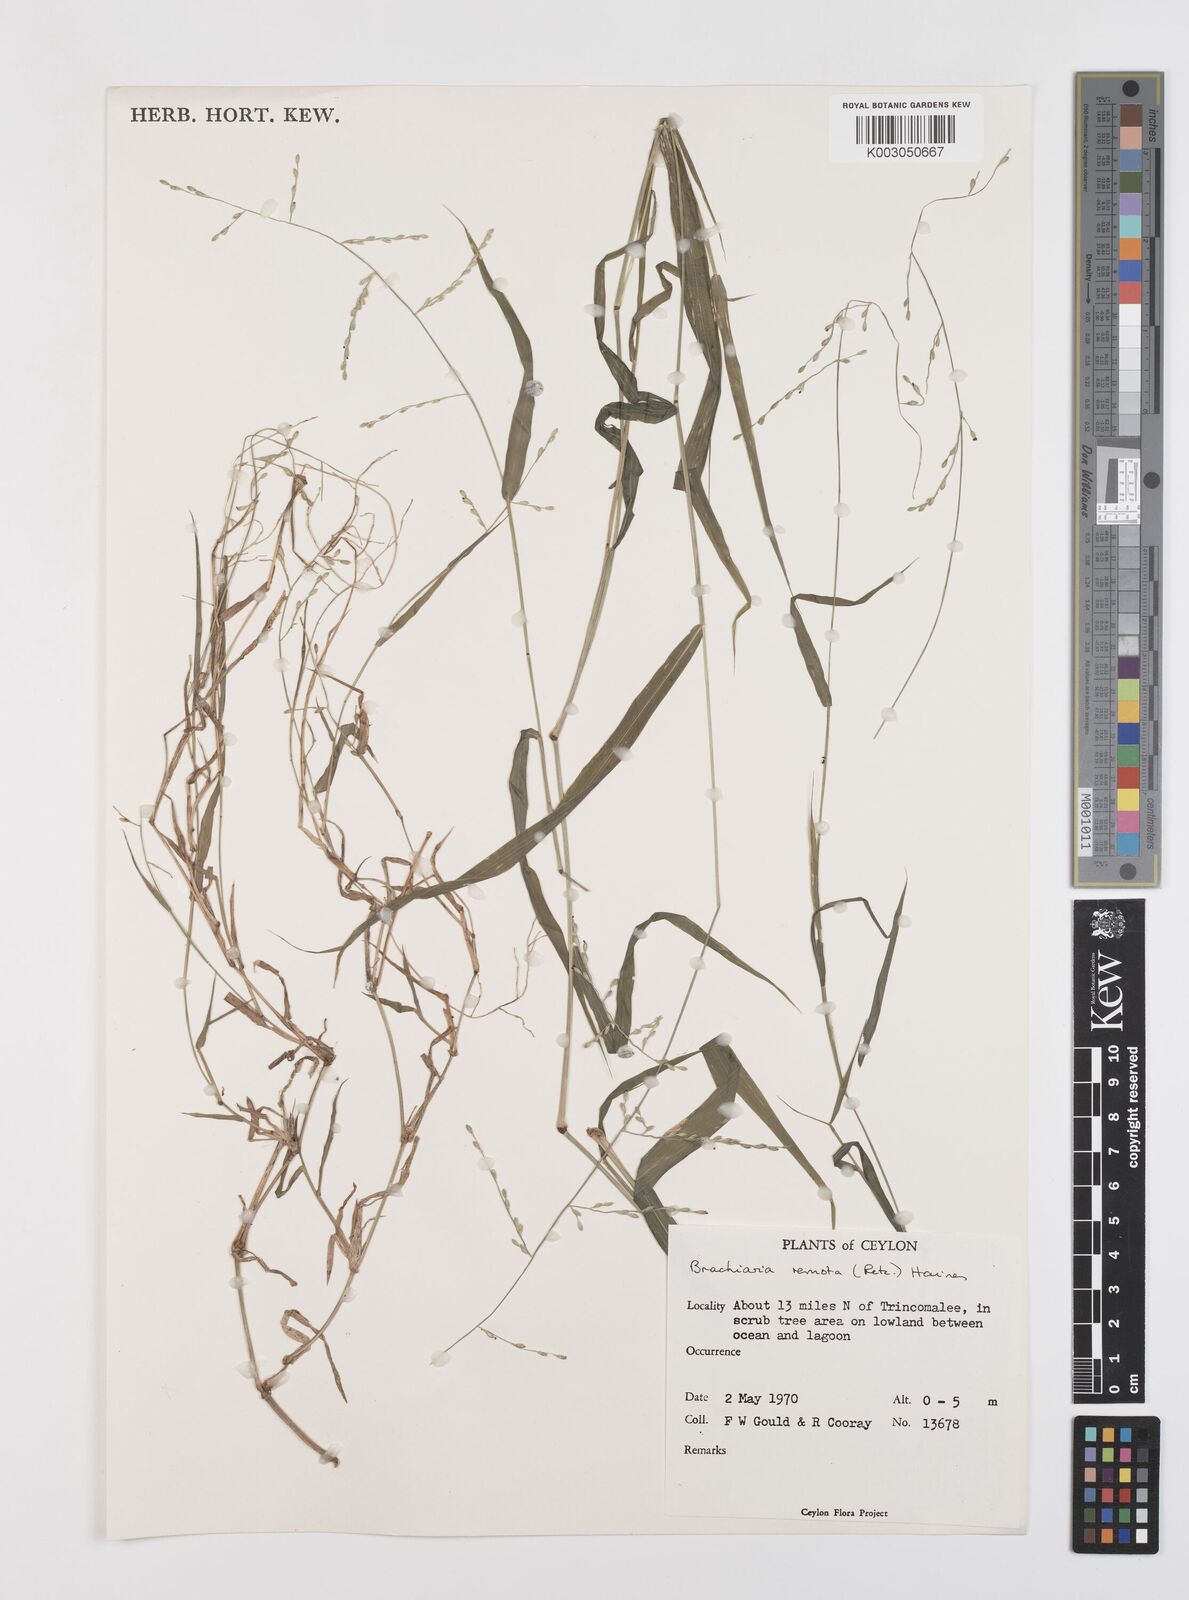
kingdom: Plantae
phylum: Tracheophyta
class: Liliopsida
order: Poales
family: Poaceae
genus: Urochloa
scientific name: Urochloa Brachiaria remota
